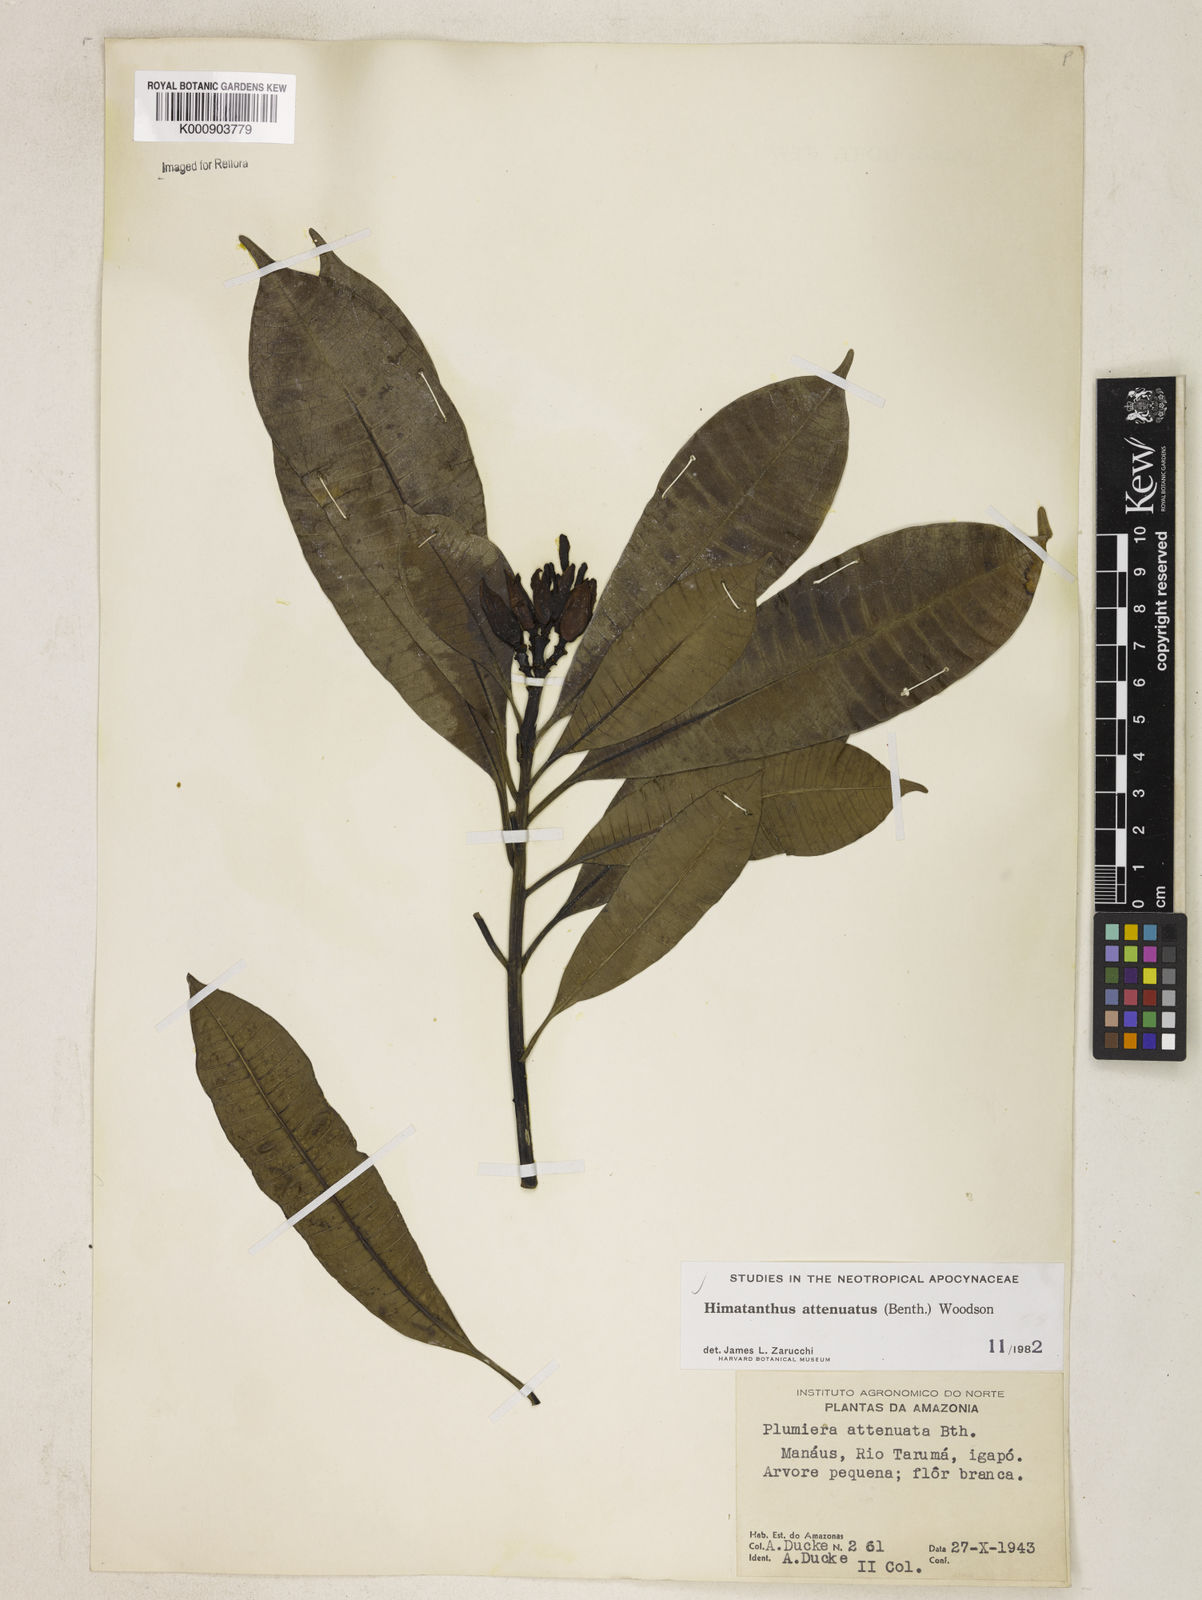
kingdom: Plantae
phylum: Tracheophyta
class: Magnoliopsida
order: Gentianales
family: Apocynaceae
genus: Himatanthus
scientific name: Himatanthus attenuatus
